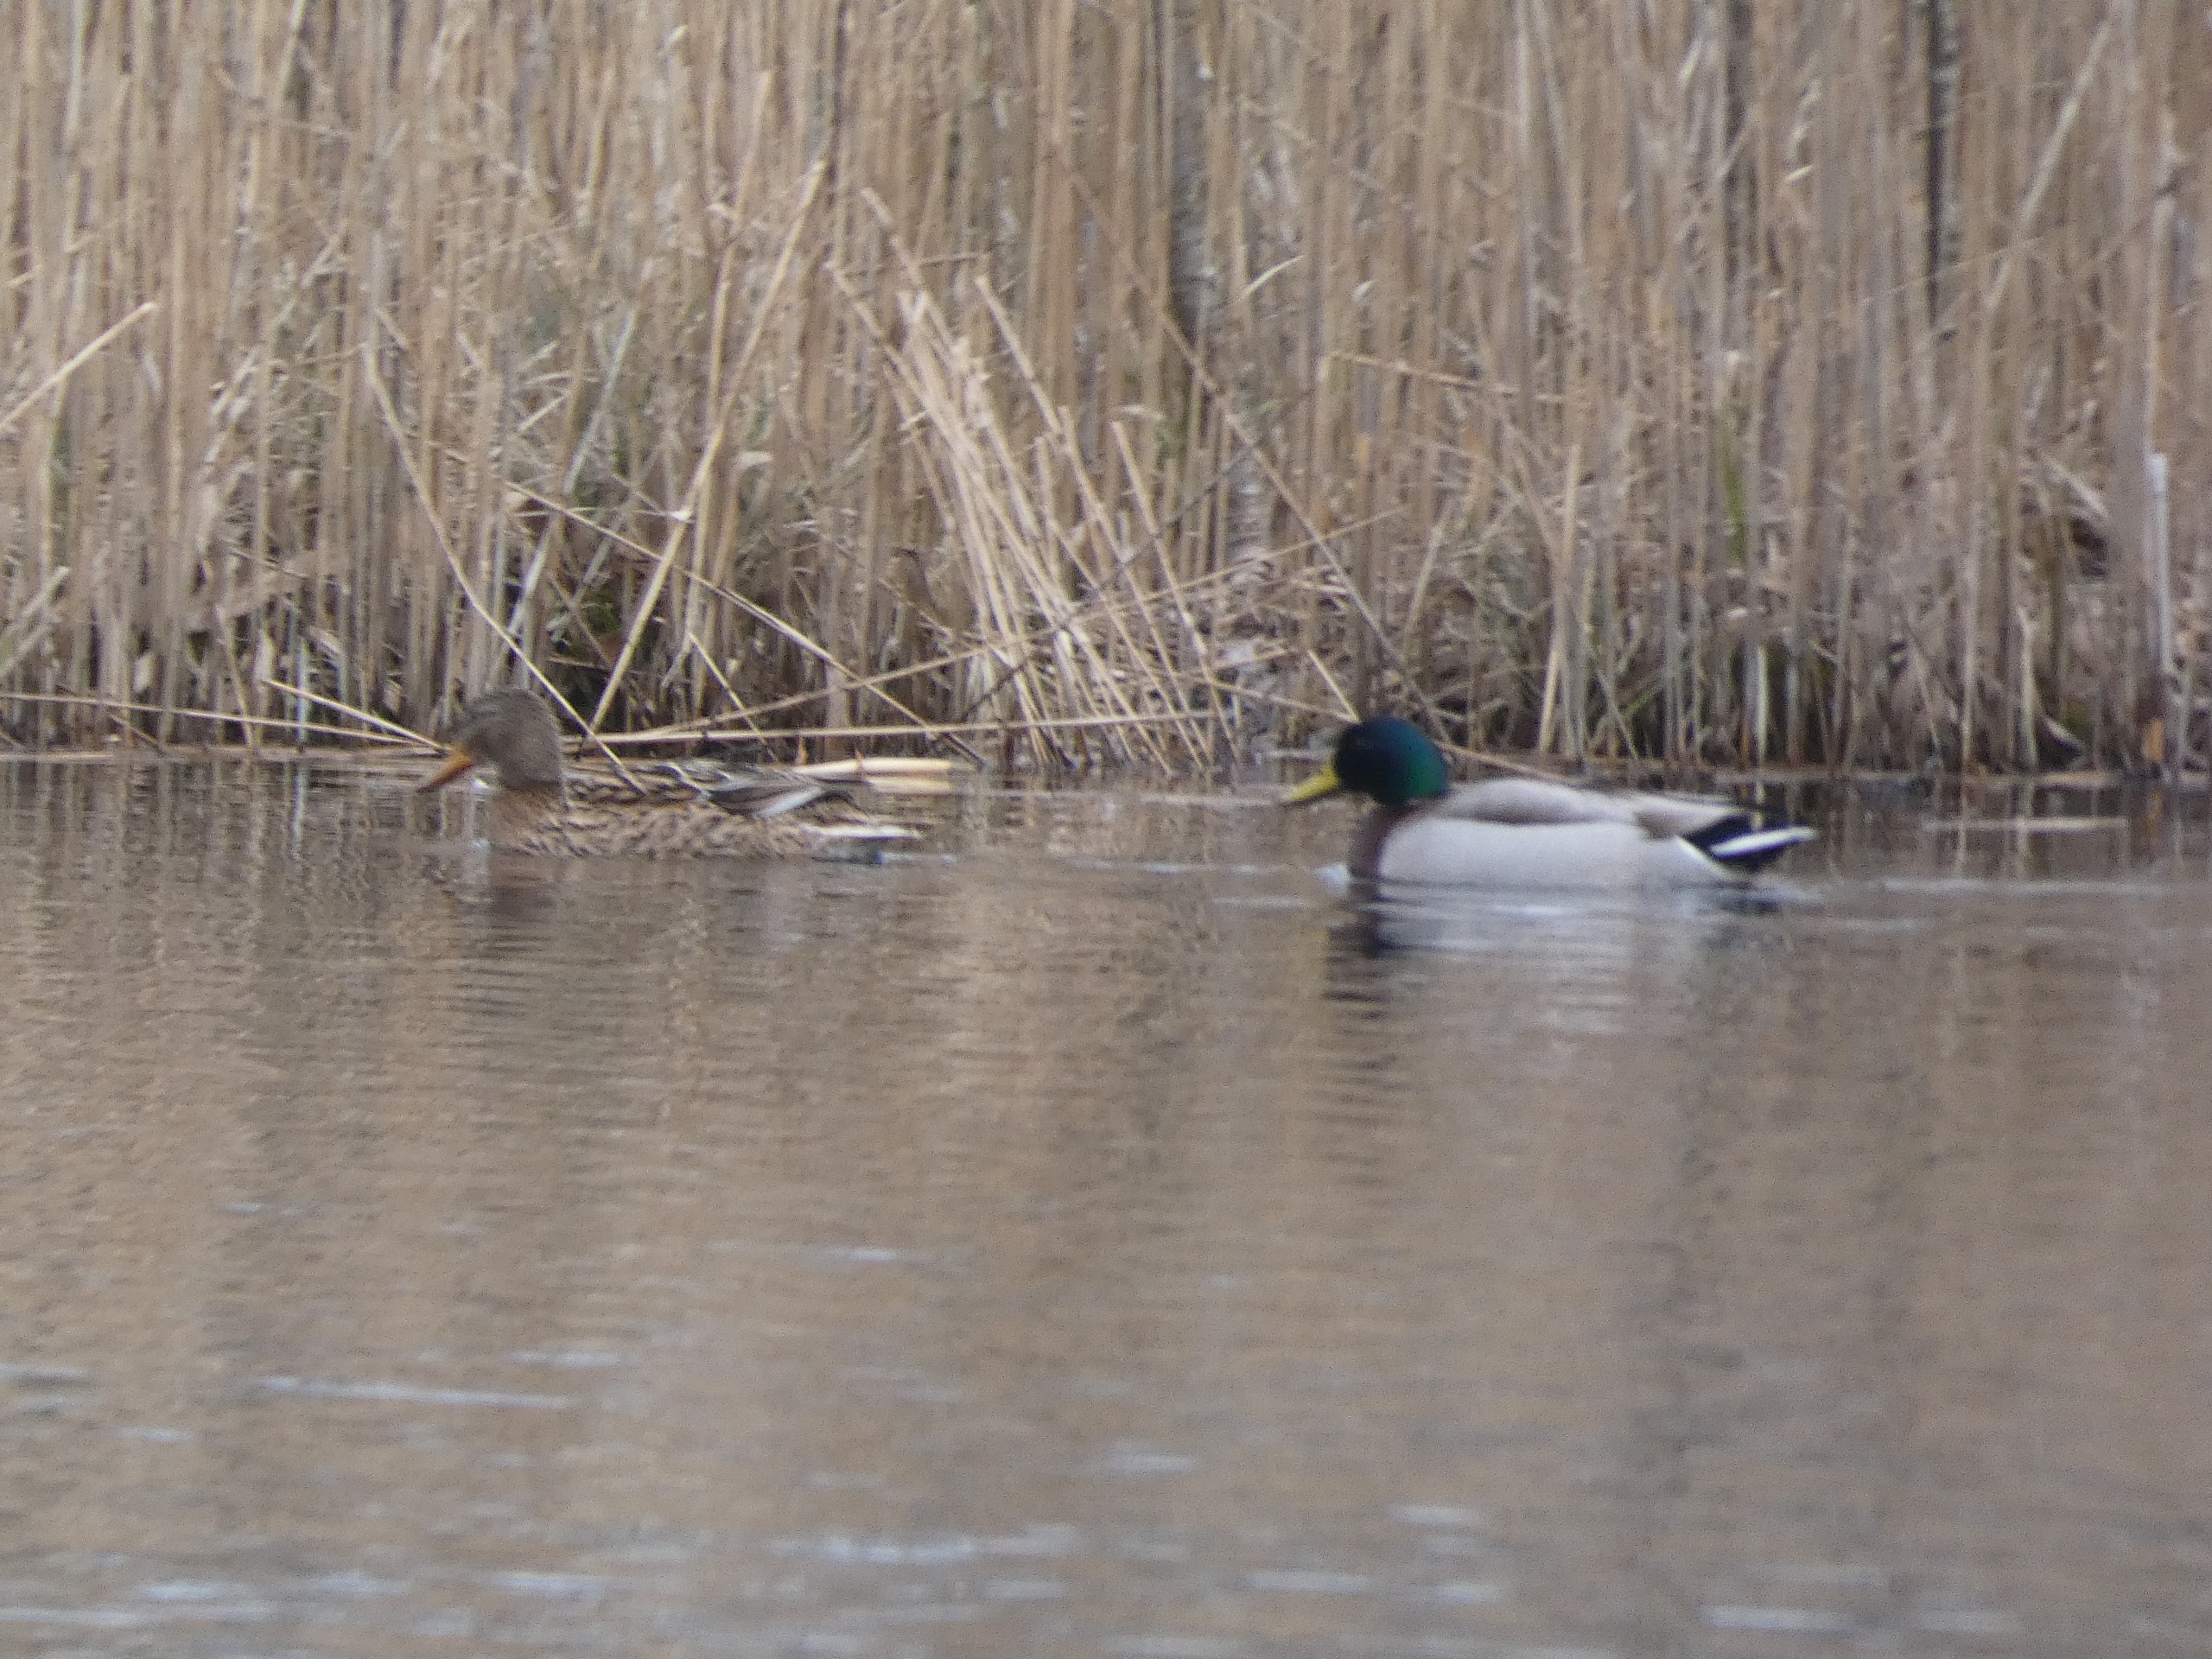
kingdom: Animalia
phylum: Chordata
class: Aves
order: Anseriformes
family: Anatidae
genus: Anas
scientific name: Anas platyrhynchos
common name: Gråand
